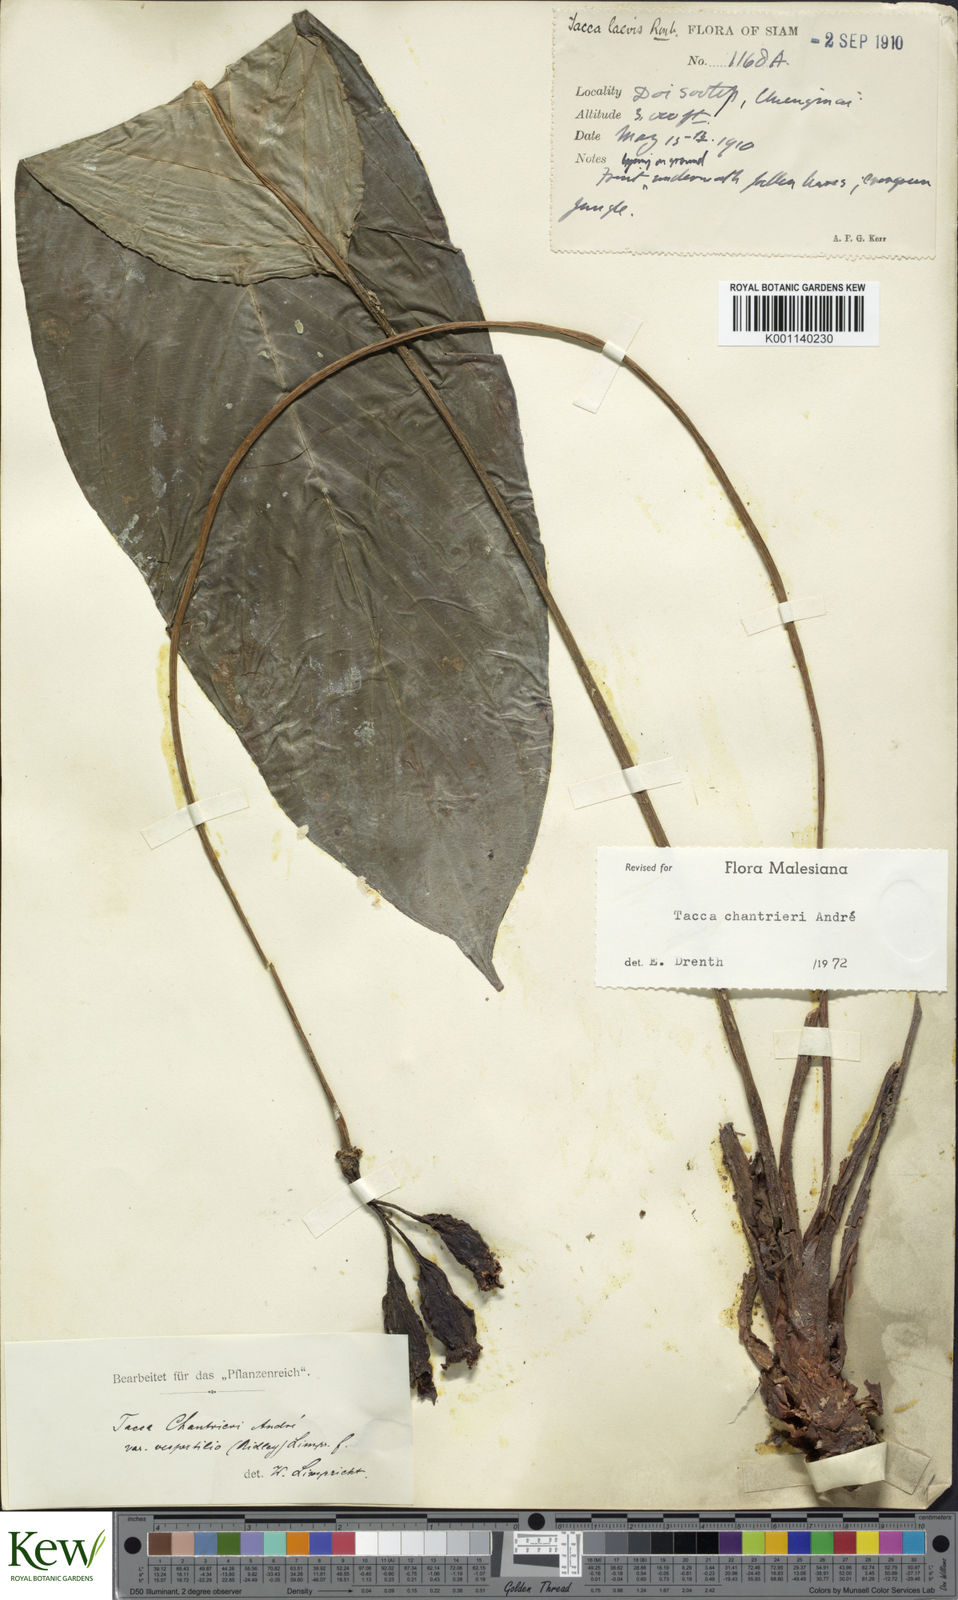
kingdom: Plantae
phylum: Tracheophyta
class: Liliopsida
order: Dioscoreales
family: Dioscoreaceae
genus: Tacca
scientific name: Tacca
